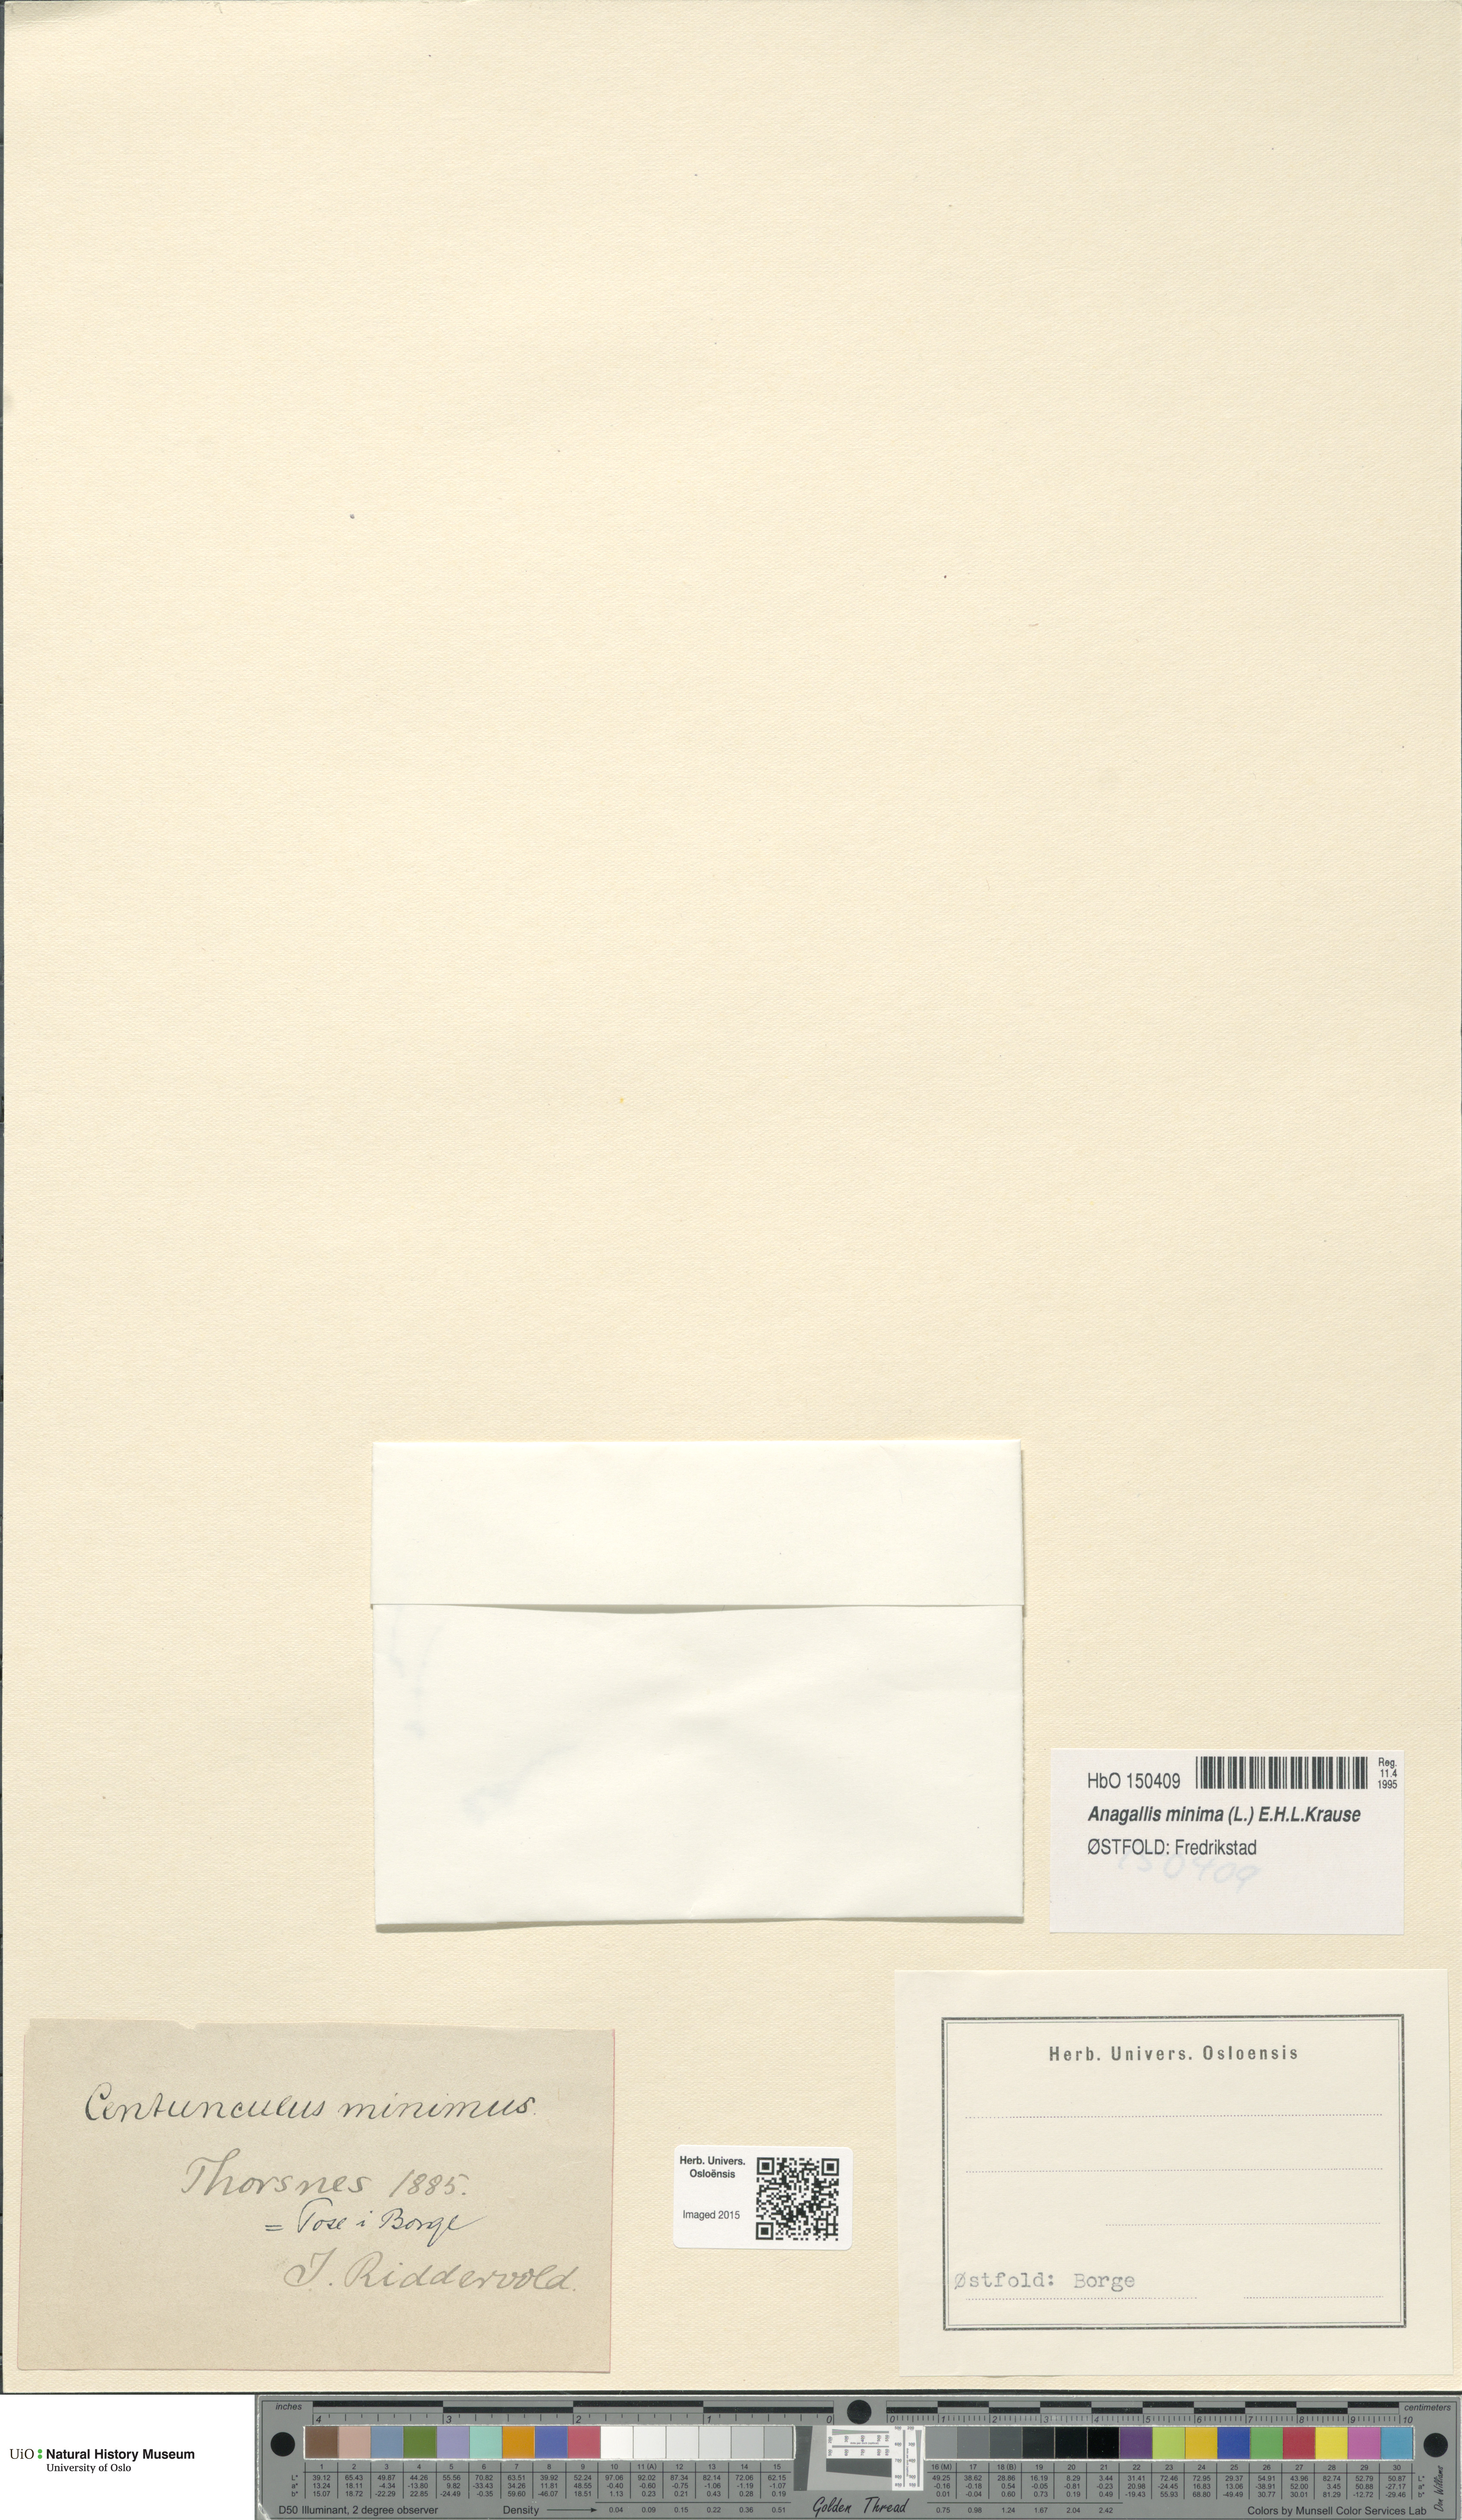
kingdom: Plantae
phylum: Tracheophyta
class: Magnoliopsida
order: Ericales
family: Primulaceae
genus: Lysimachia
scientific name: Lysimachia minima
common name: Chaffweed
